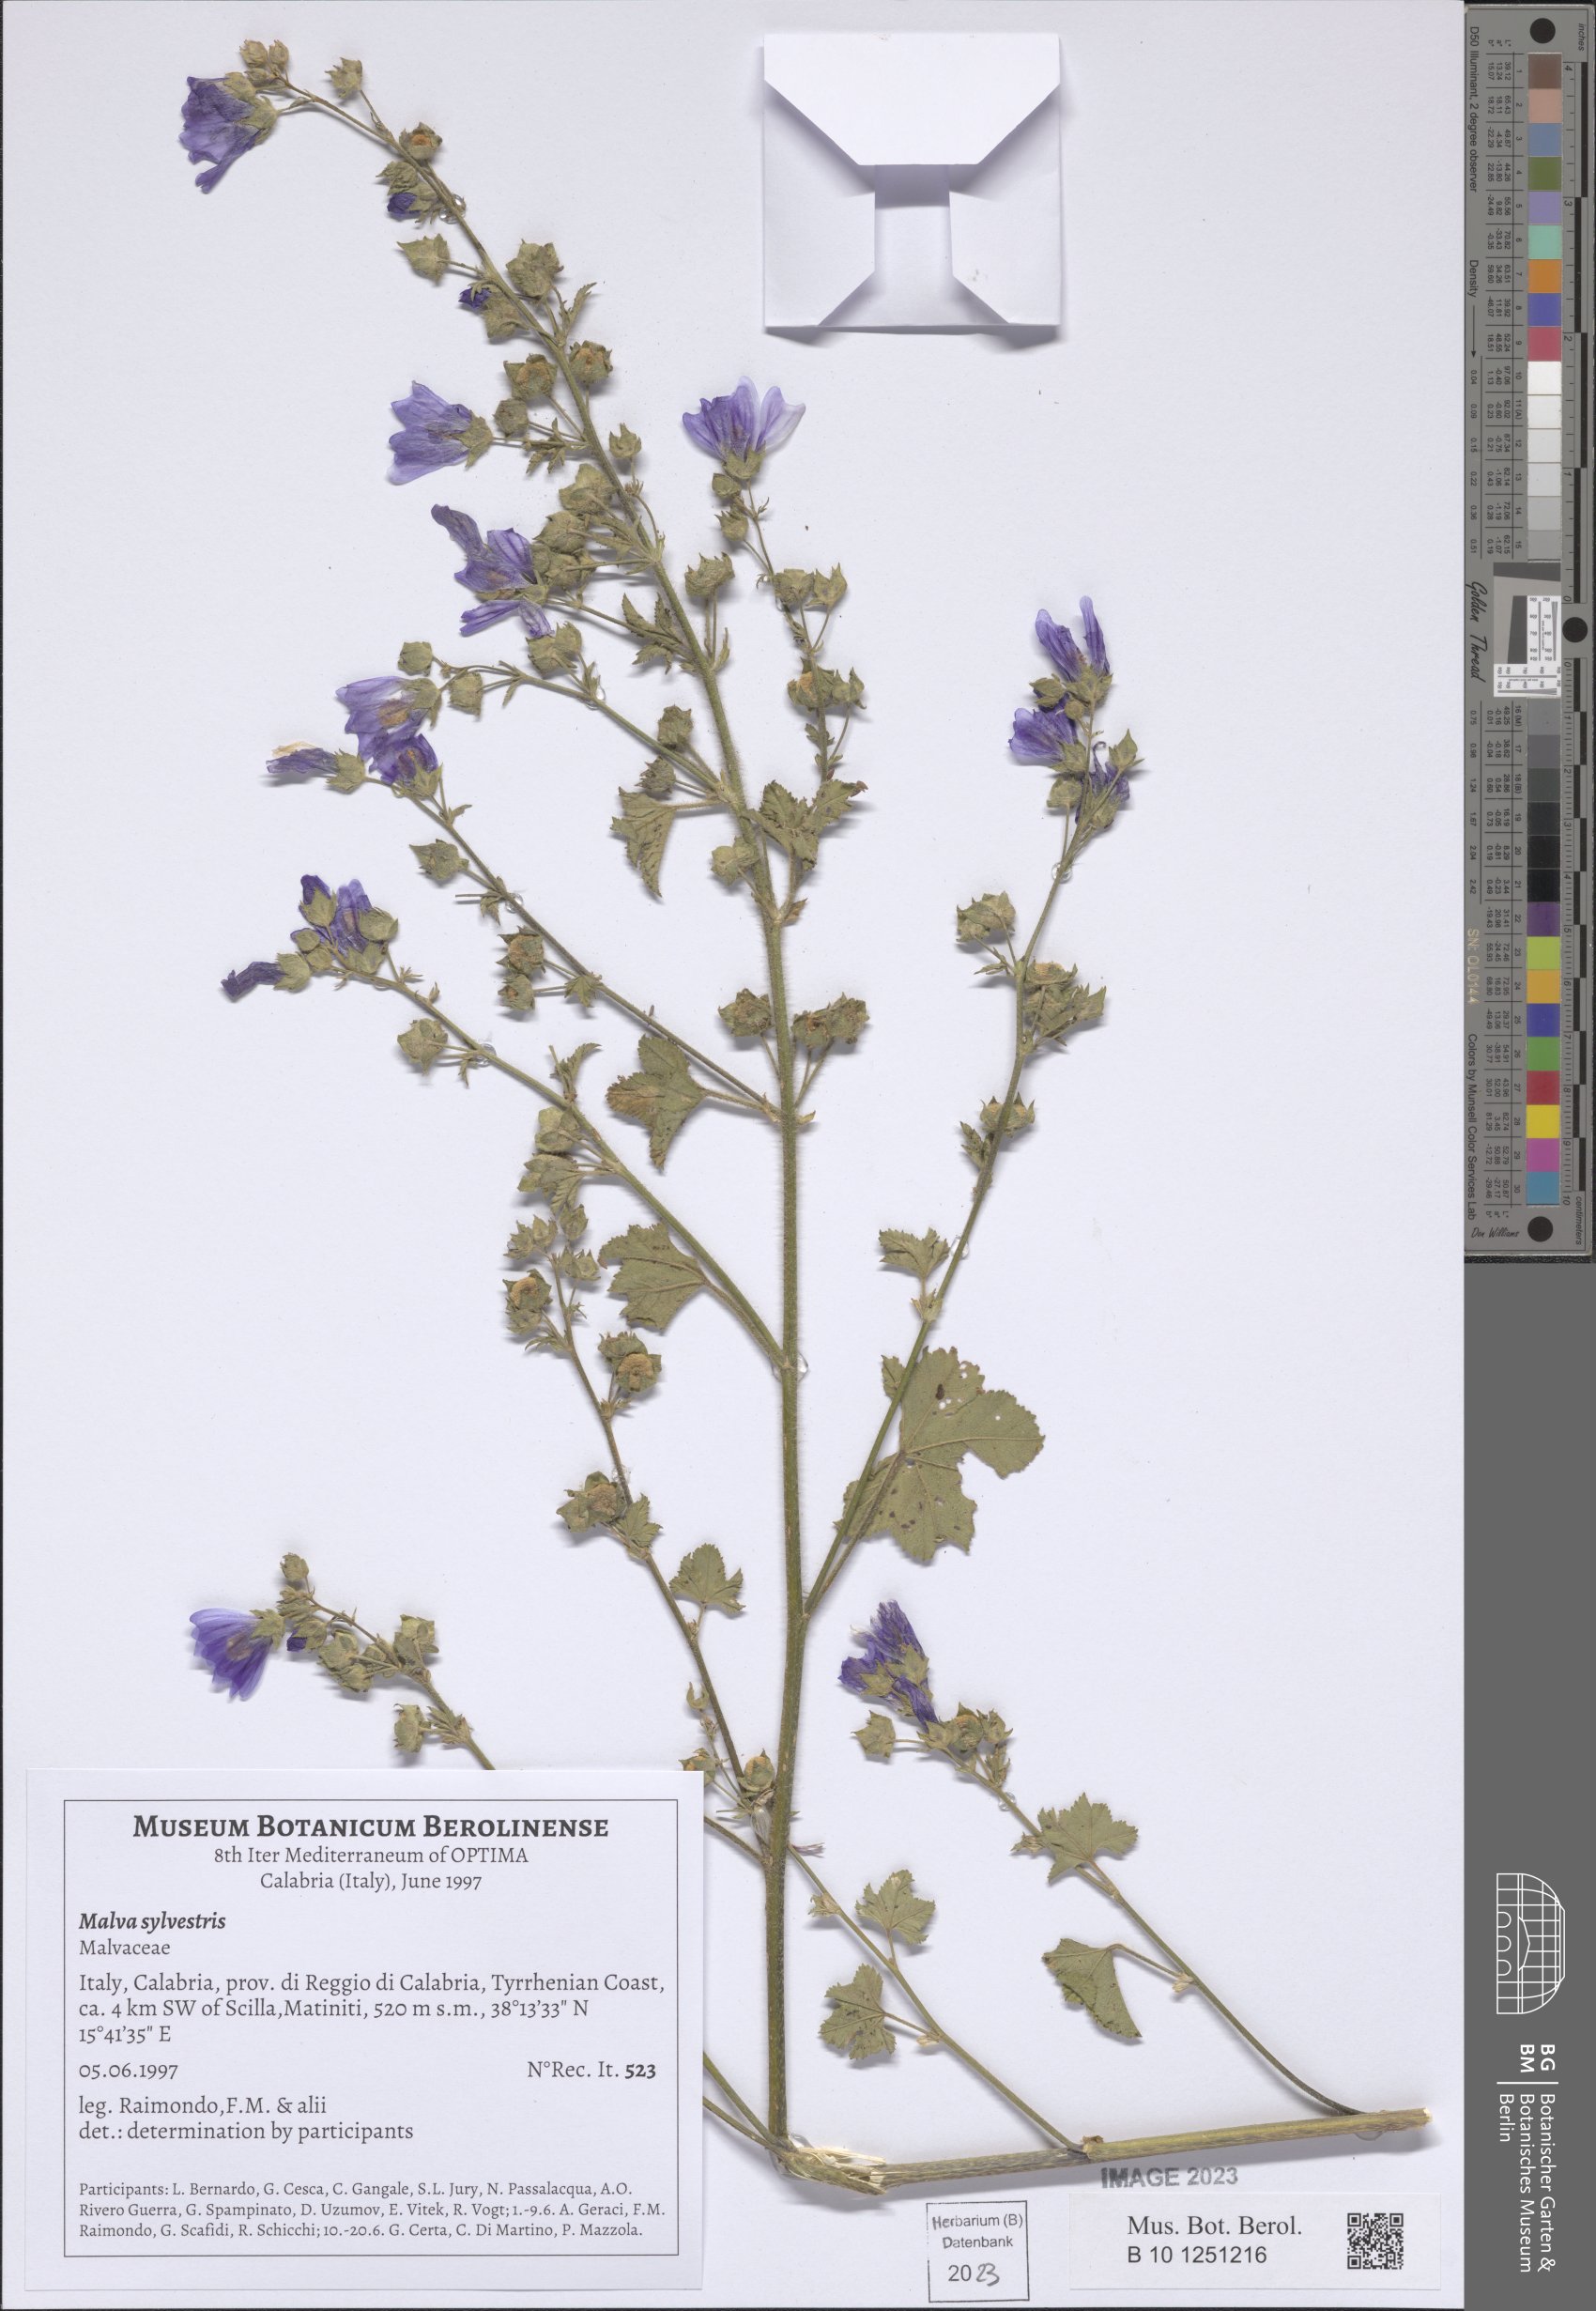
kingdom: Plantae
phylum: Tracheophyta
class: Magnoliopsida
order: Malvales
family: Malvaceae
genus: Malva
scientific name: Malva sylvestris
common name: Common mallow
